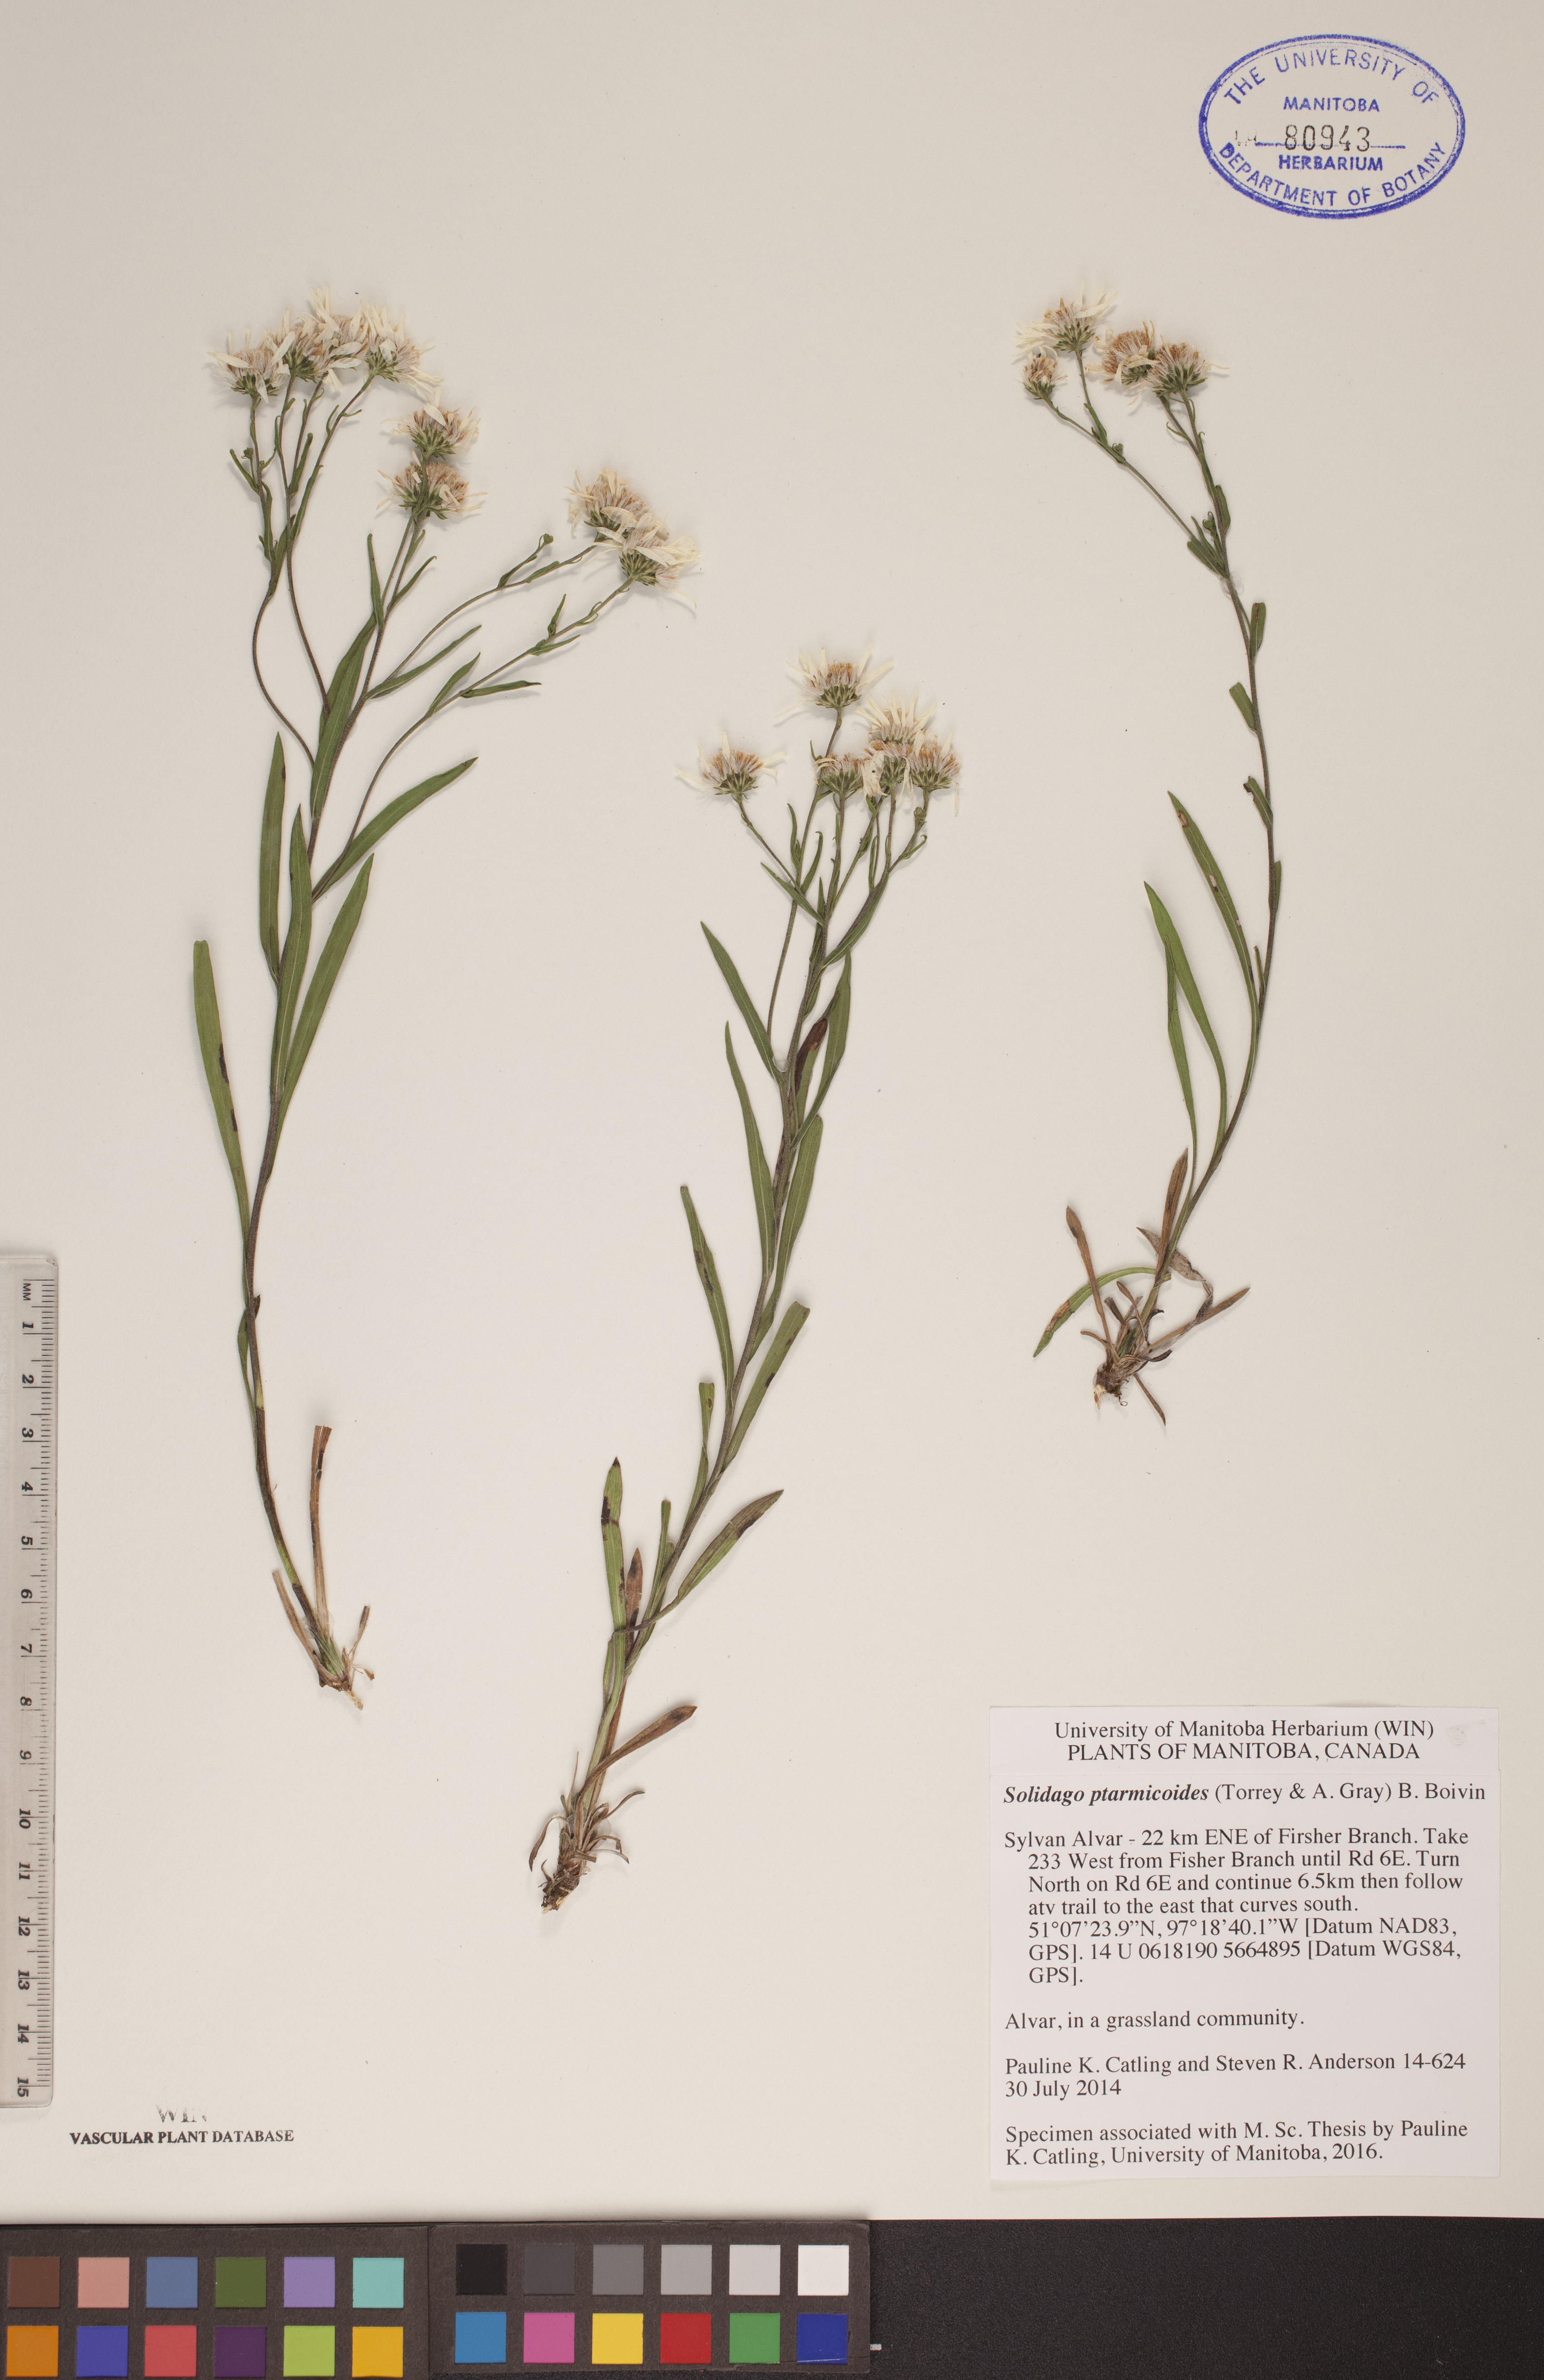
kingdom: Plantae
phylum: Tracheophyta
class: Magnoliopsida
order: Asterales
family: Asteraceae
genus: Solidago
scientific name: Solidago ptarmicoides
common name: White flat-top goldenrod
